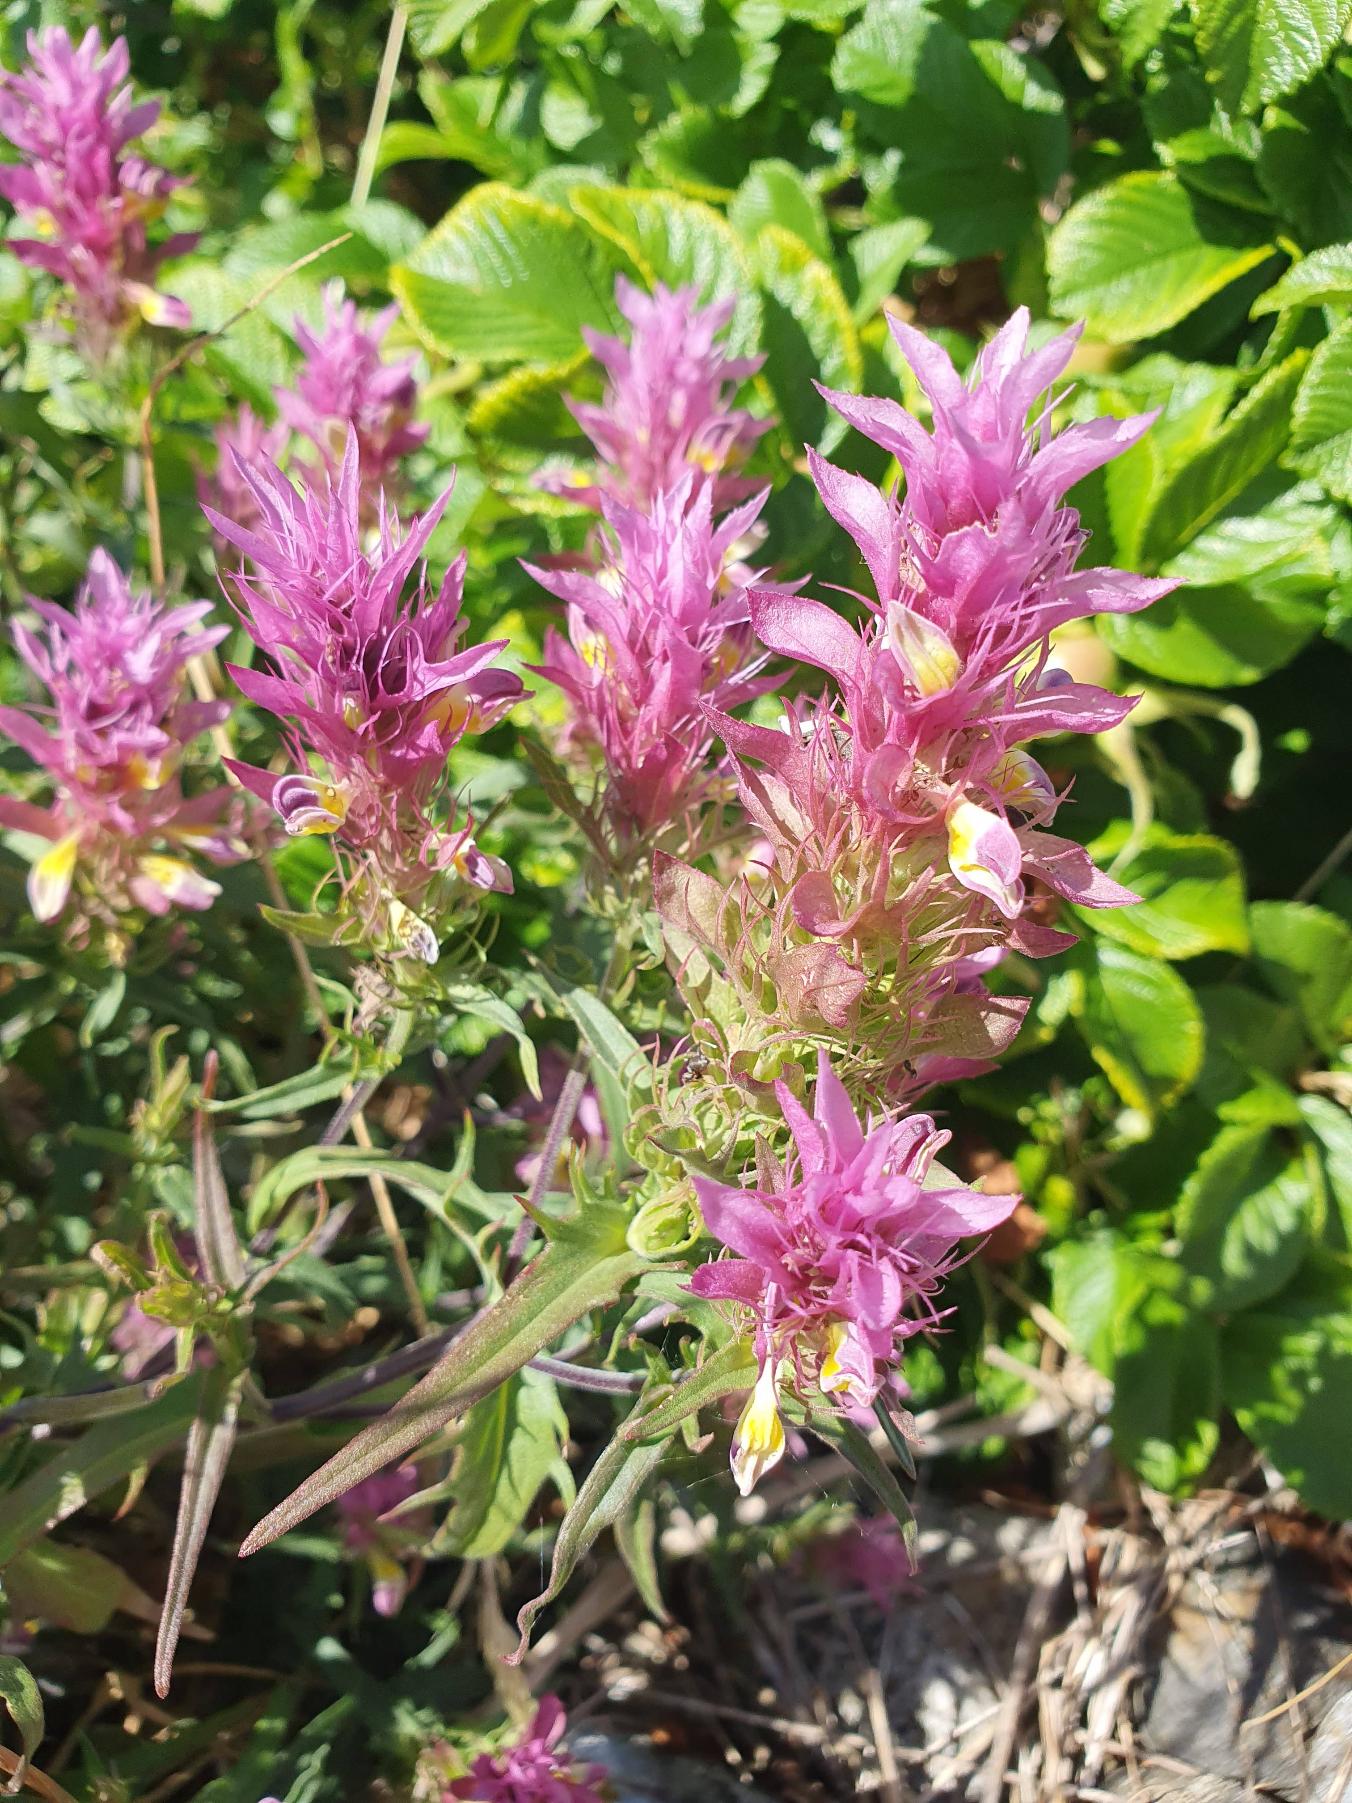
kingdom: Plantae
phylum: Tracheophyta
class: Magnoliopsida
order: Lamiales
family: Orobanchaceae
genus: Melampyrum
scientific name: Melampyrum arvense
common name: Ager-kohvede
